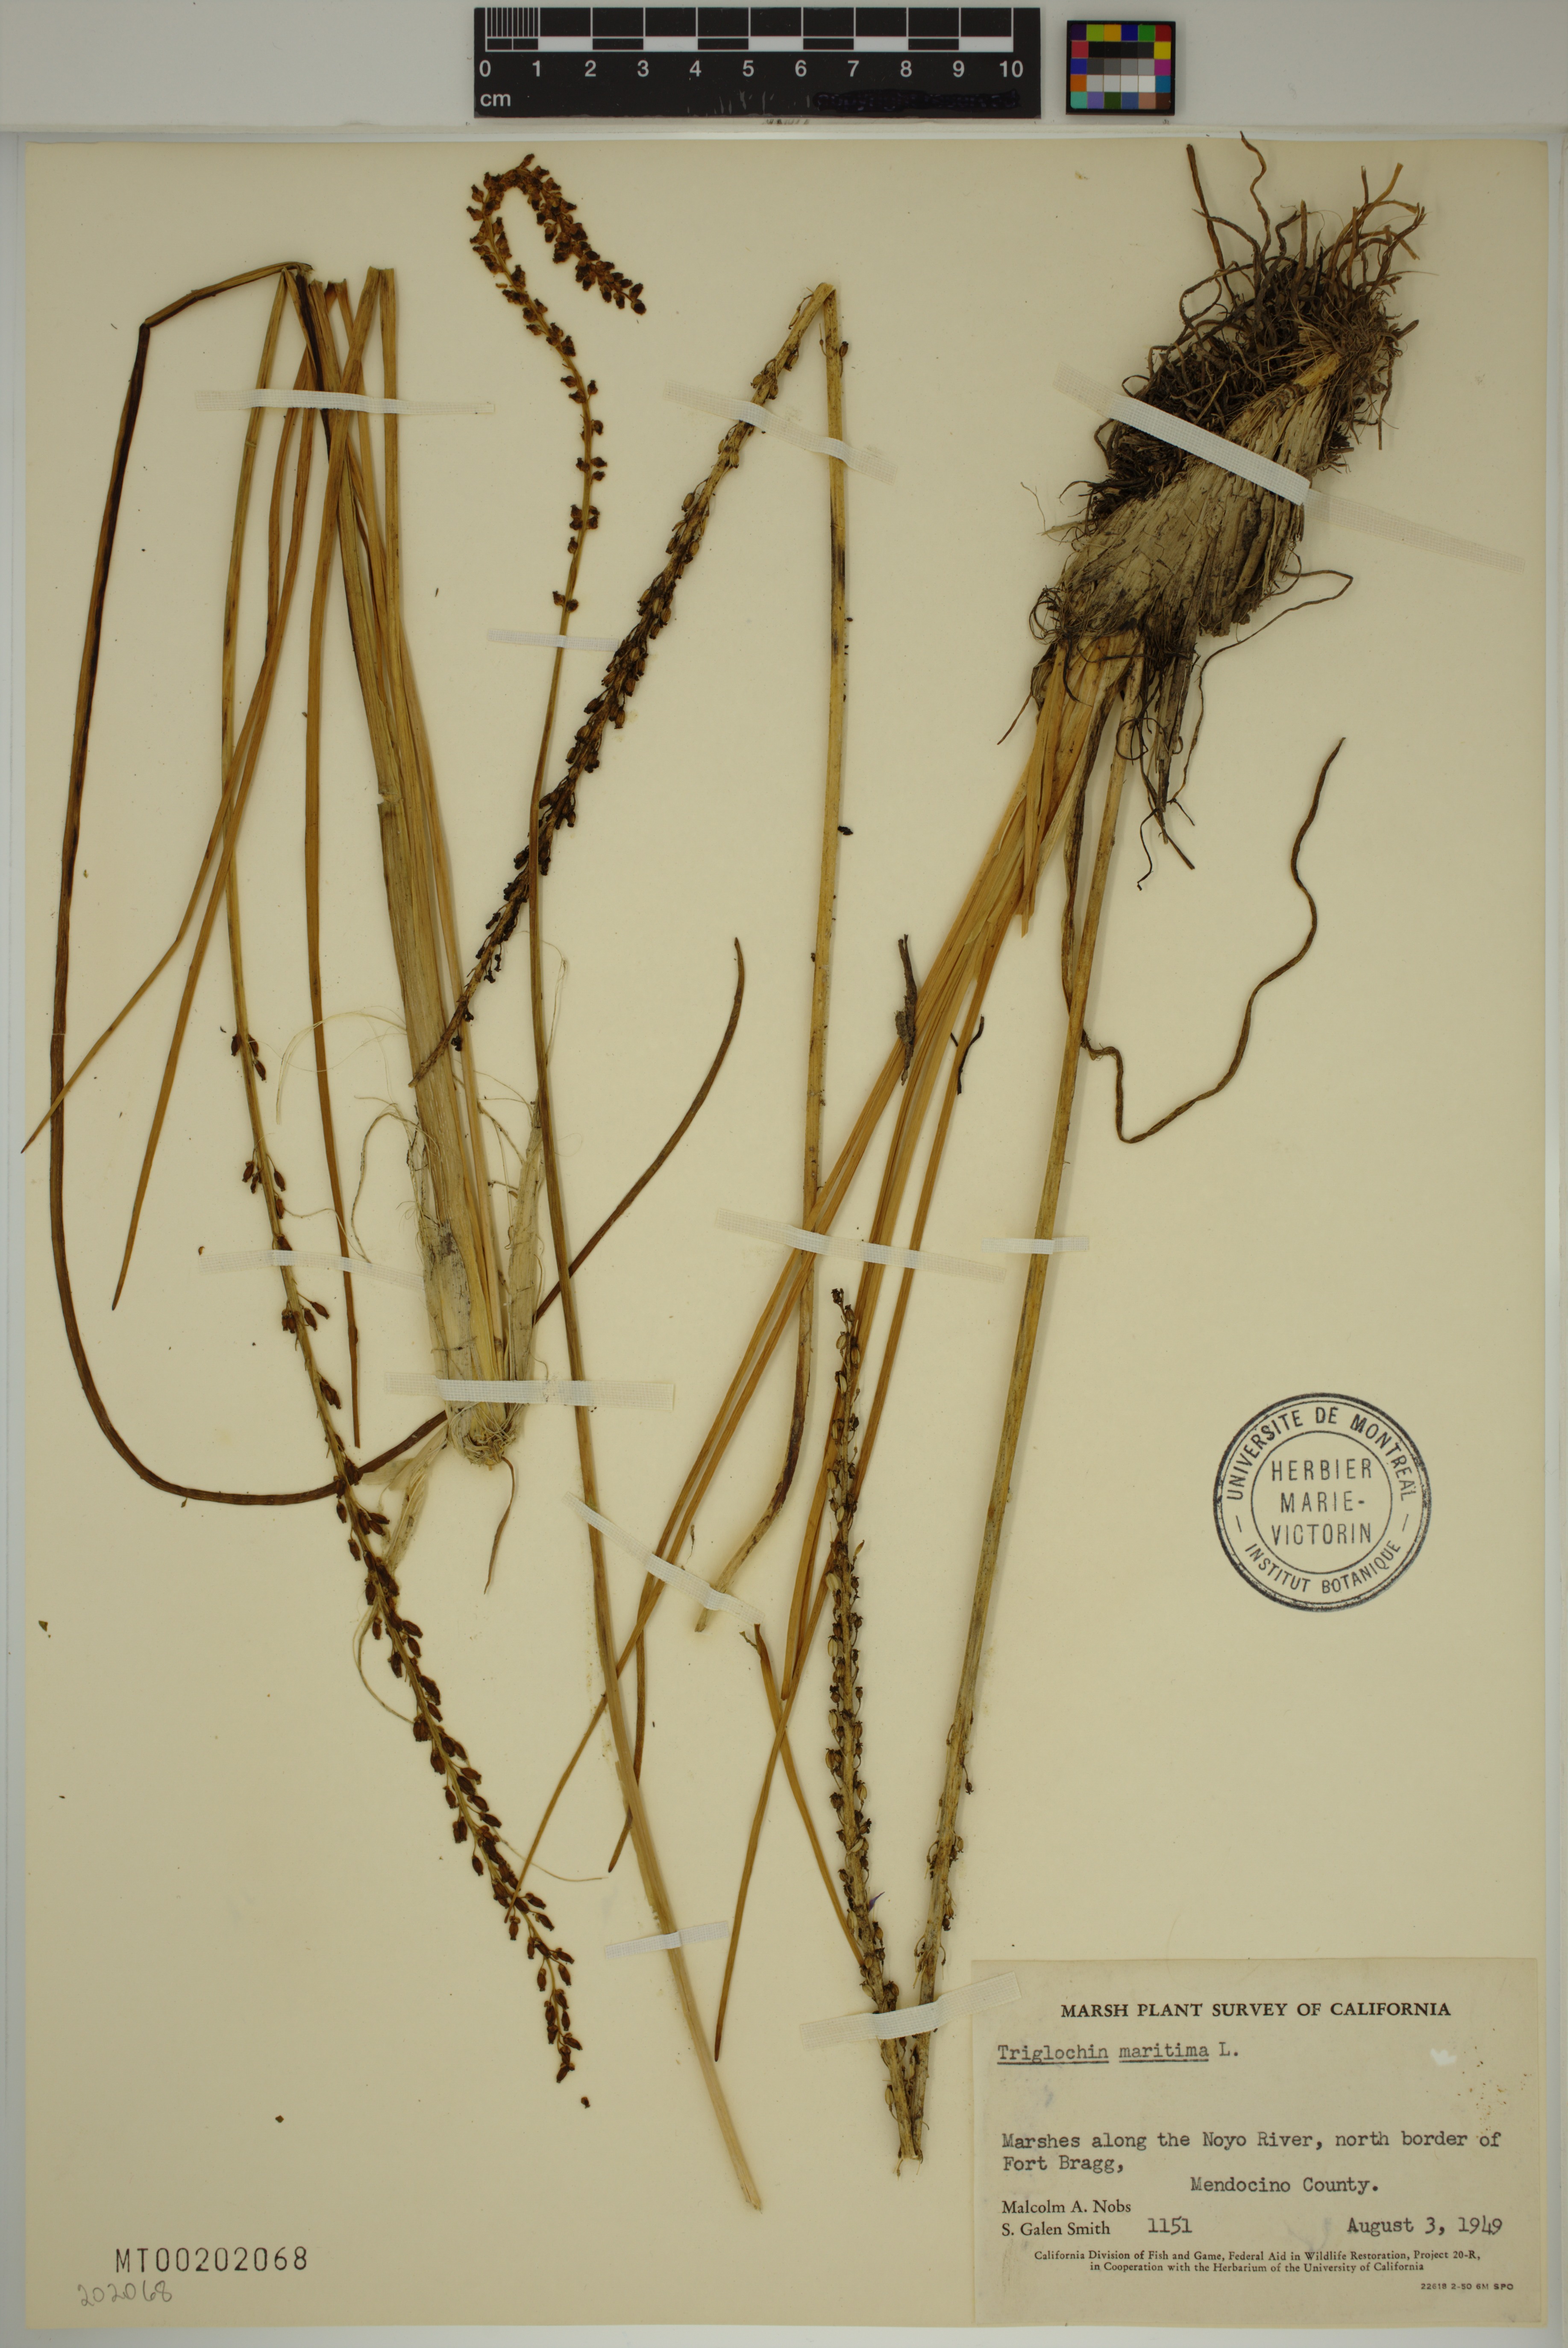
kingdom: Plantae
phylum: Tracheophyta
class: Liliopsida
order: Alismatales
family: Juncaginaceae
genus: Triglochin
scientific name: Triglochin maritima
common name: Sea arrowgrass
